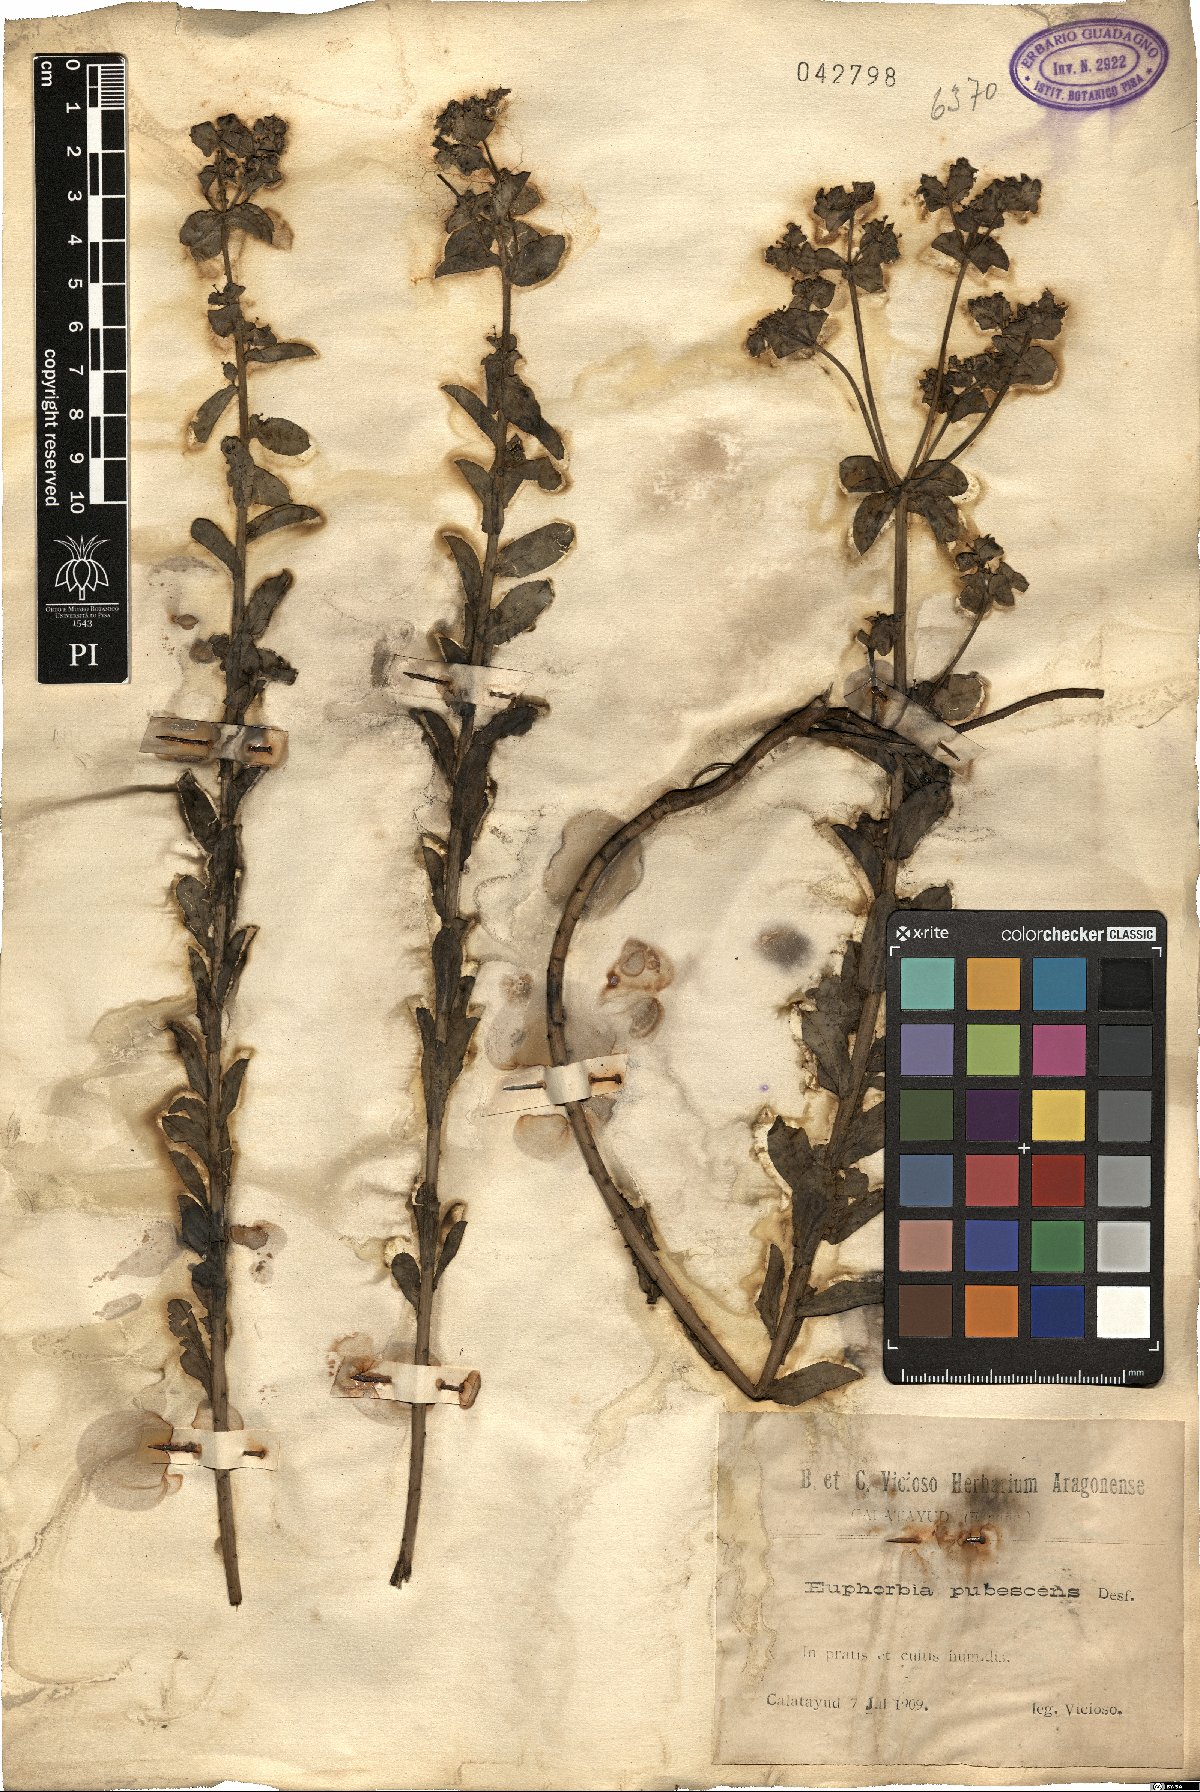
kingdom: Plantae
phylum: Tracheophyta
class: Magnoliopsida
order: Malpighiales
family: Euphorbiaceae
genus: Euphorbia
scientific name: Euphorbia hirsuta
